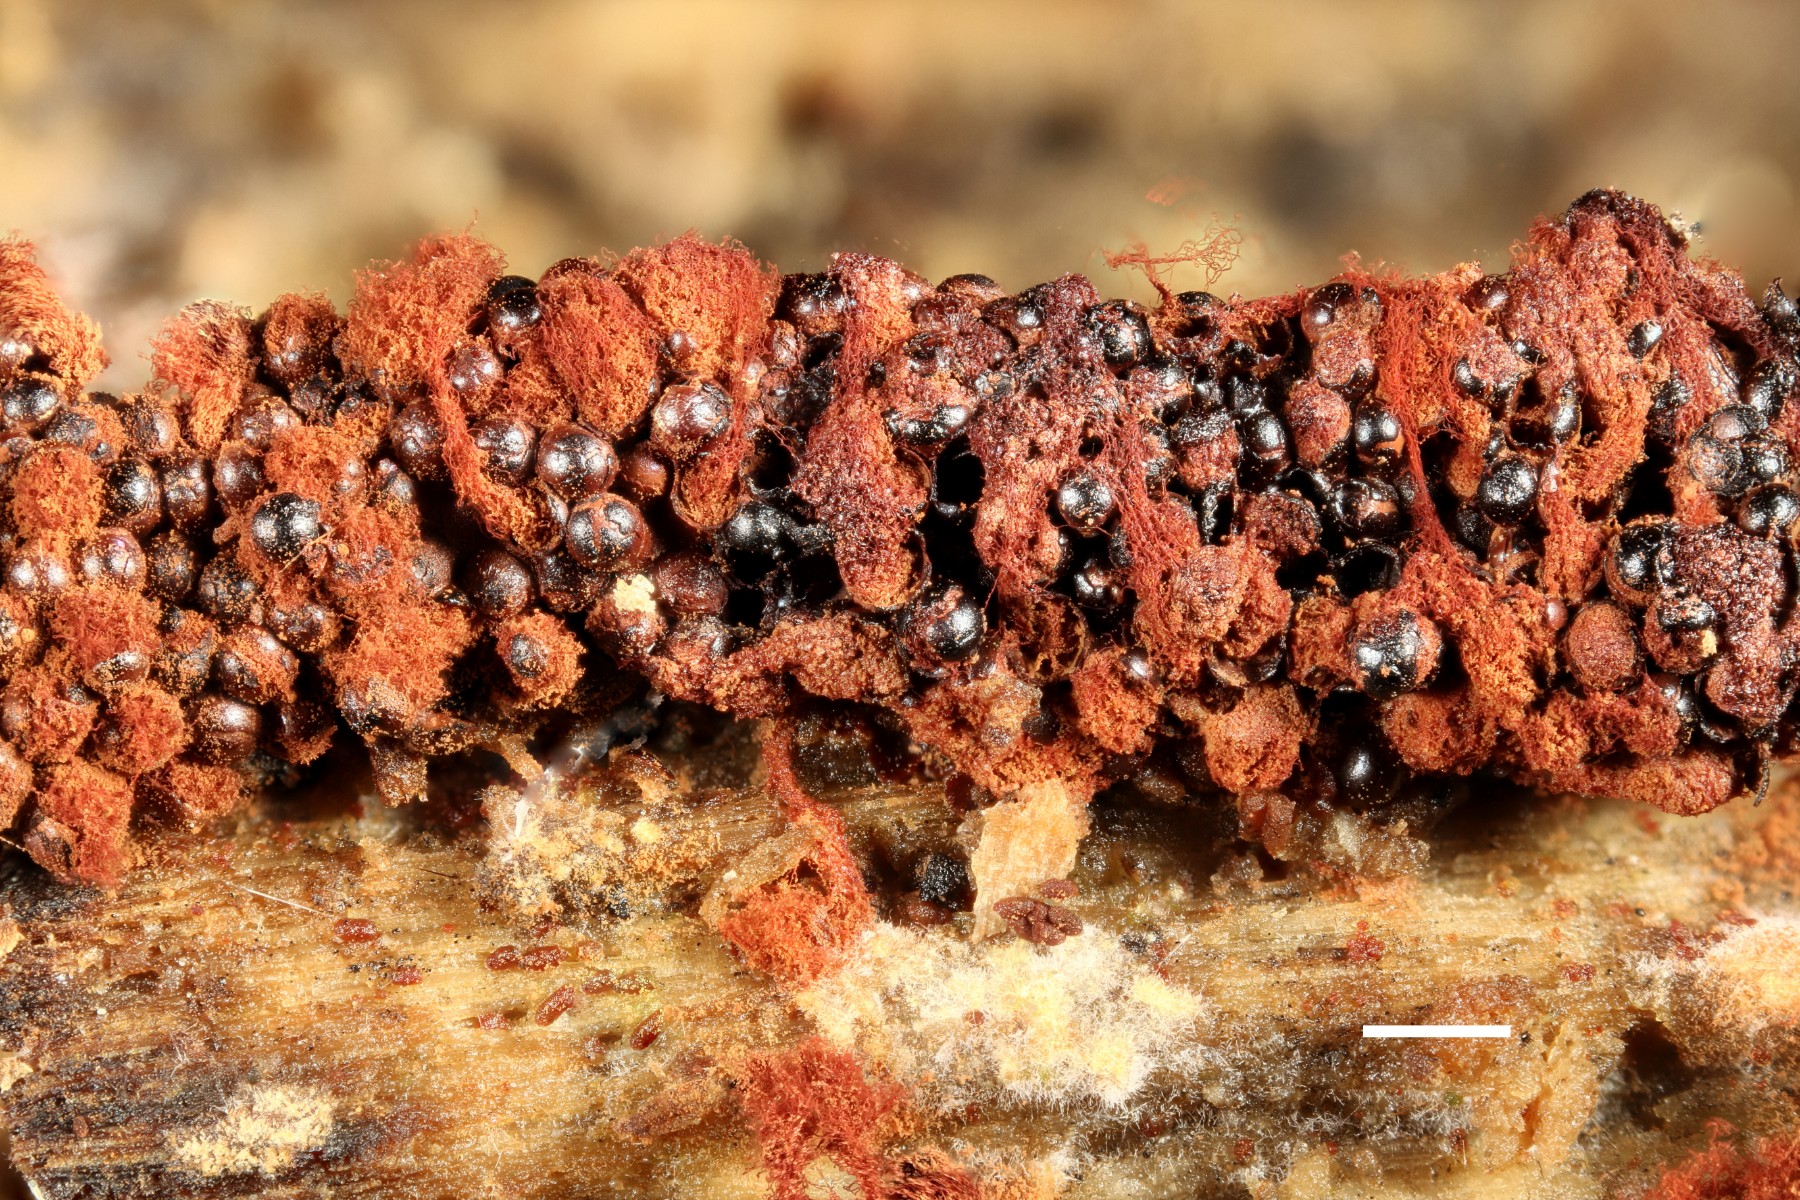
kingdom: Protozoa
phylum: Mycetozoa
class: Myxomycetes
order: Trichiales
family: Trichiaceae
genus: Metatrichia
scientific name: Metatrichia vesparia
